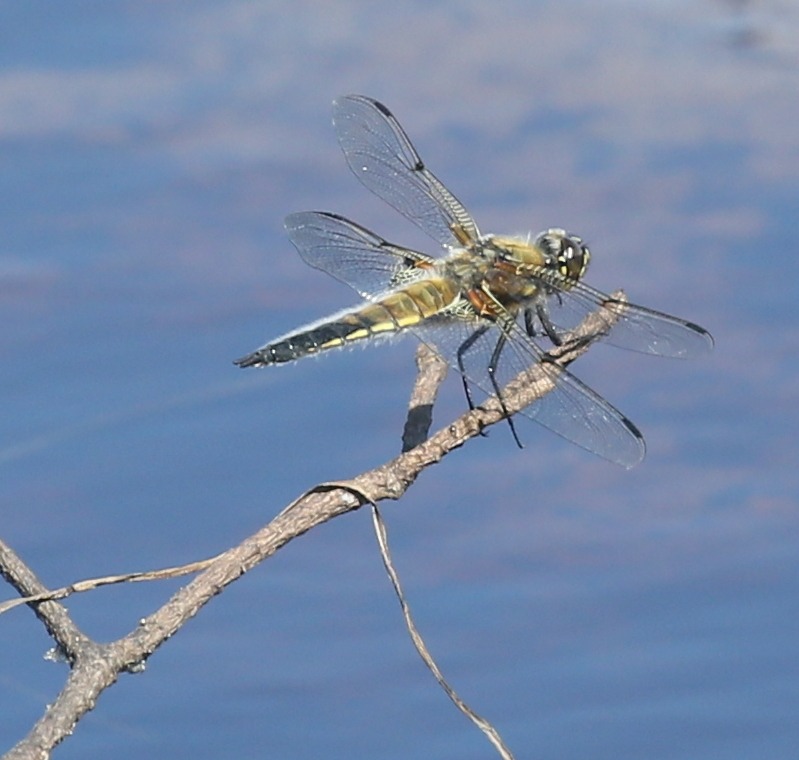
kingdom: Animalia
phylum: Arthropoda
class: Insecta
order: Odonata
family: Libellulidae
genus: Libellula
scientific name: Libellula quadrimaculata
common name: Fireplettet libel
